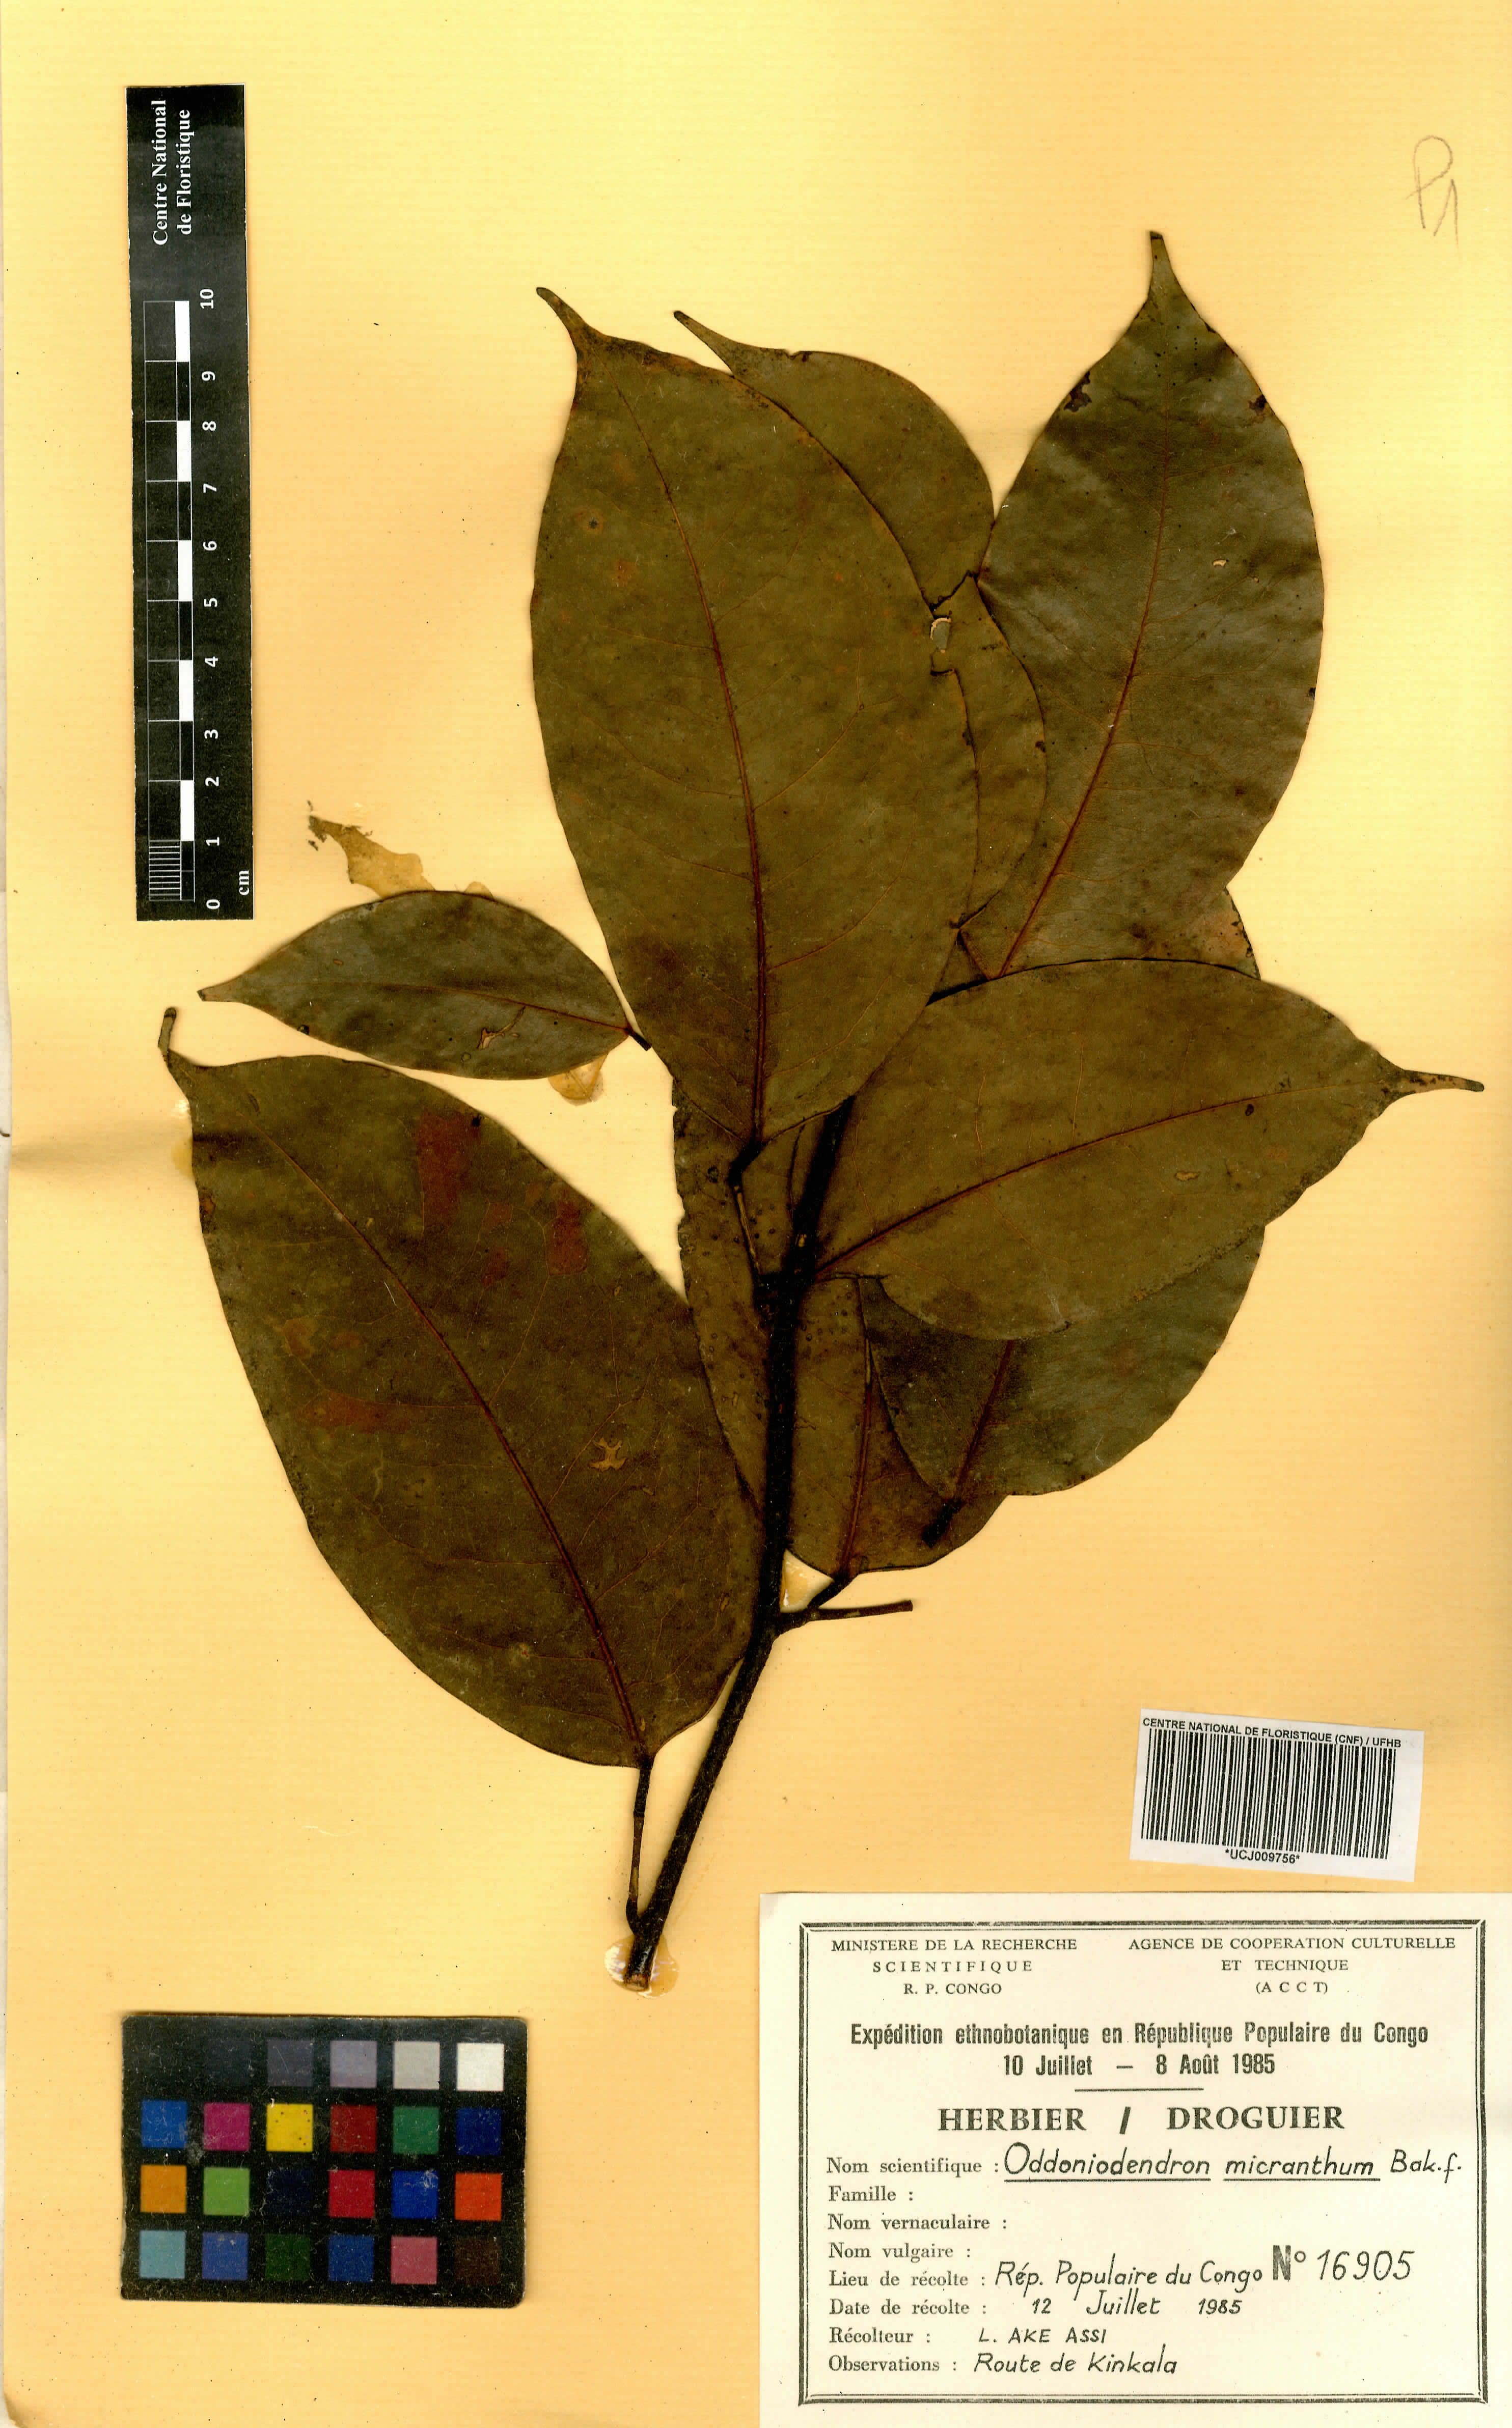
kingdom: Plantae
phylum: Tracheophyta
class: Magnoliopsida
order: Fabales
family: Fabaceae
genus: Oddoniodendron
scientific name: Oddoniodendron micranthum
